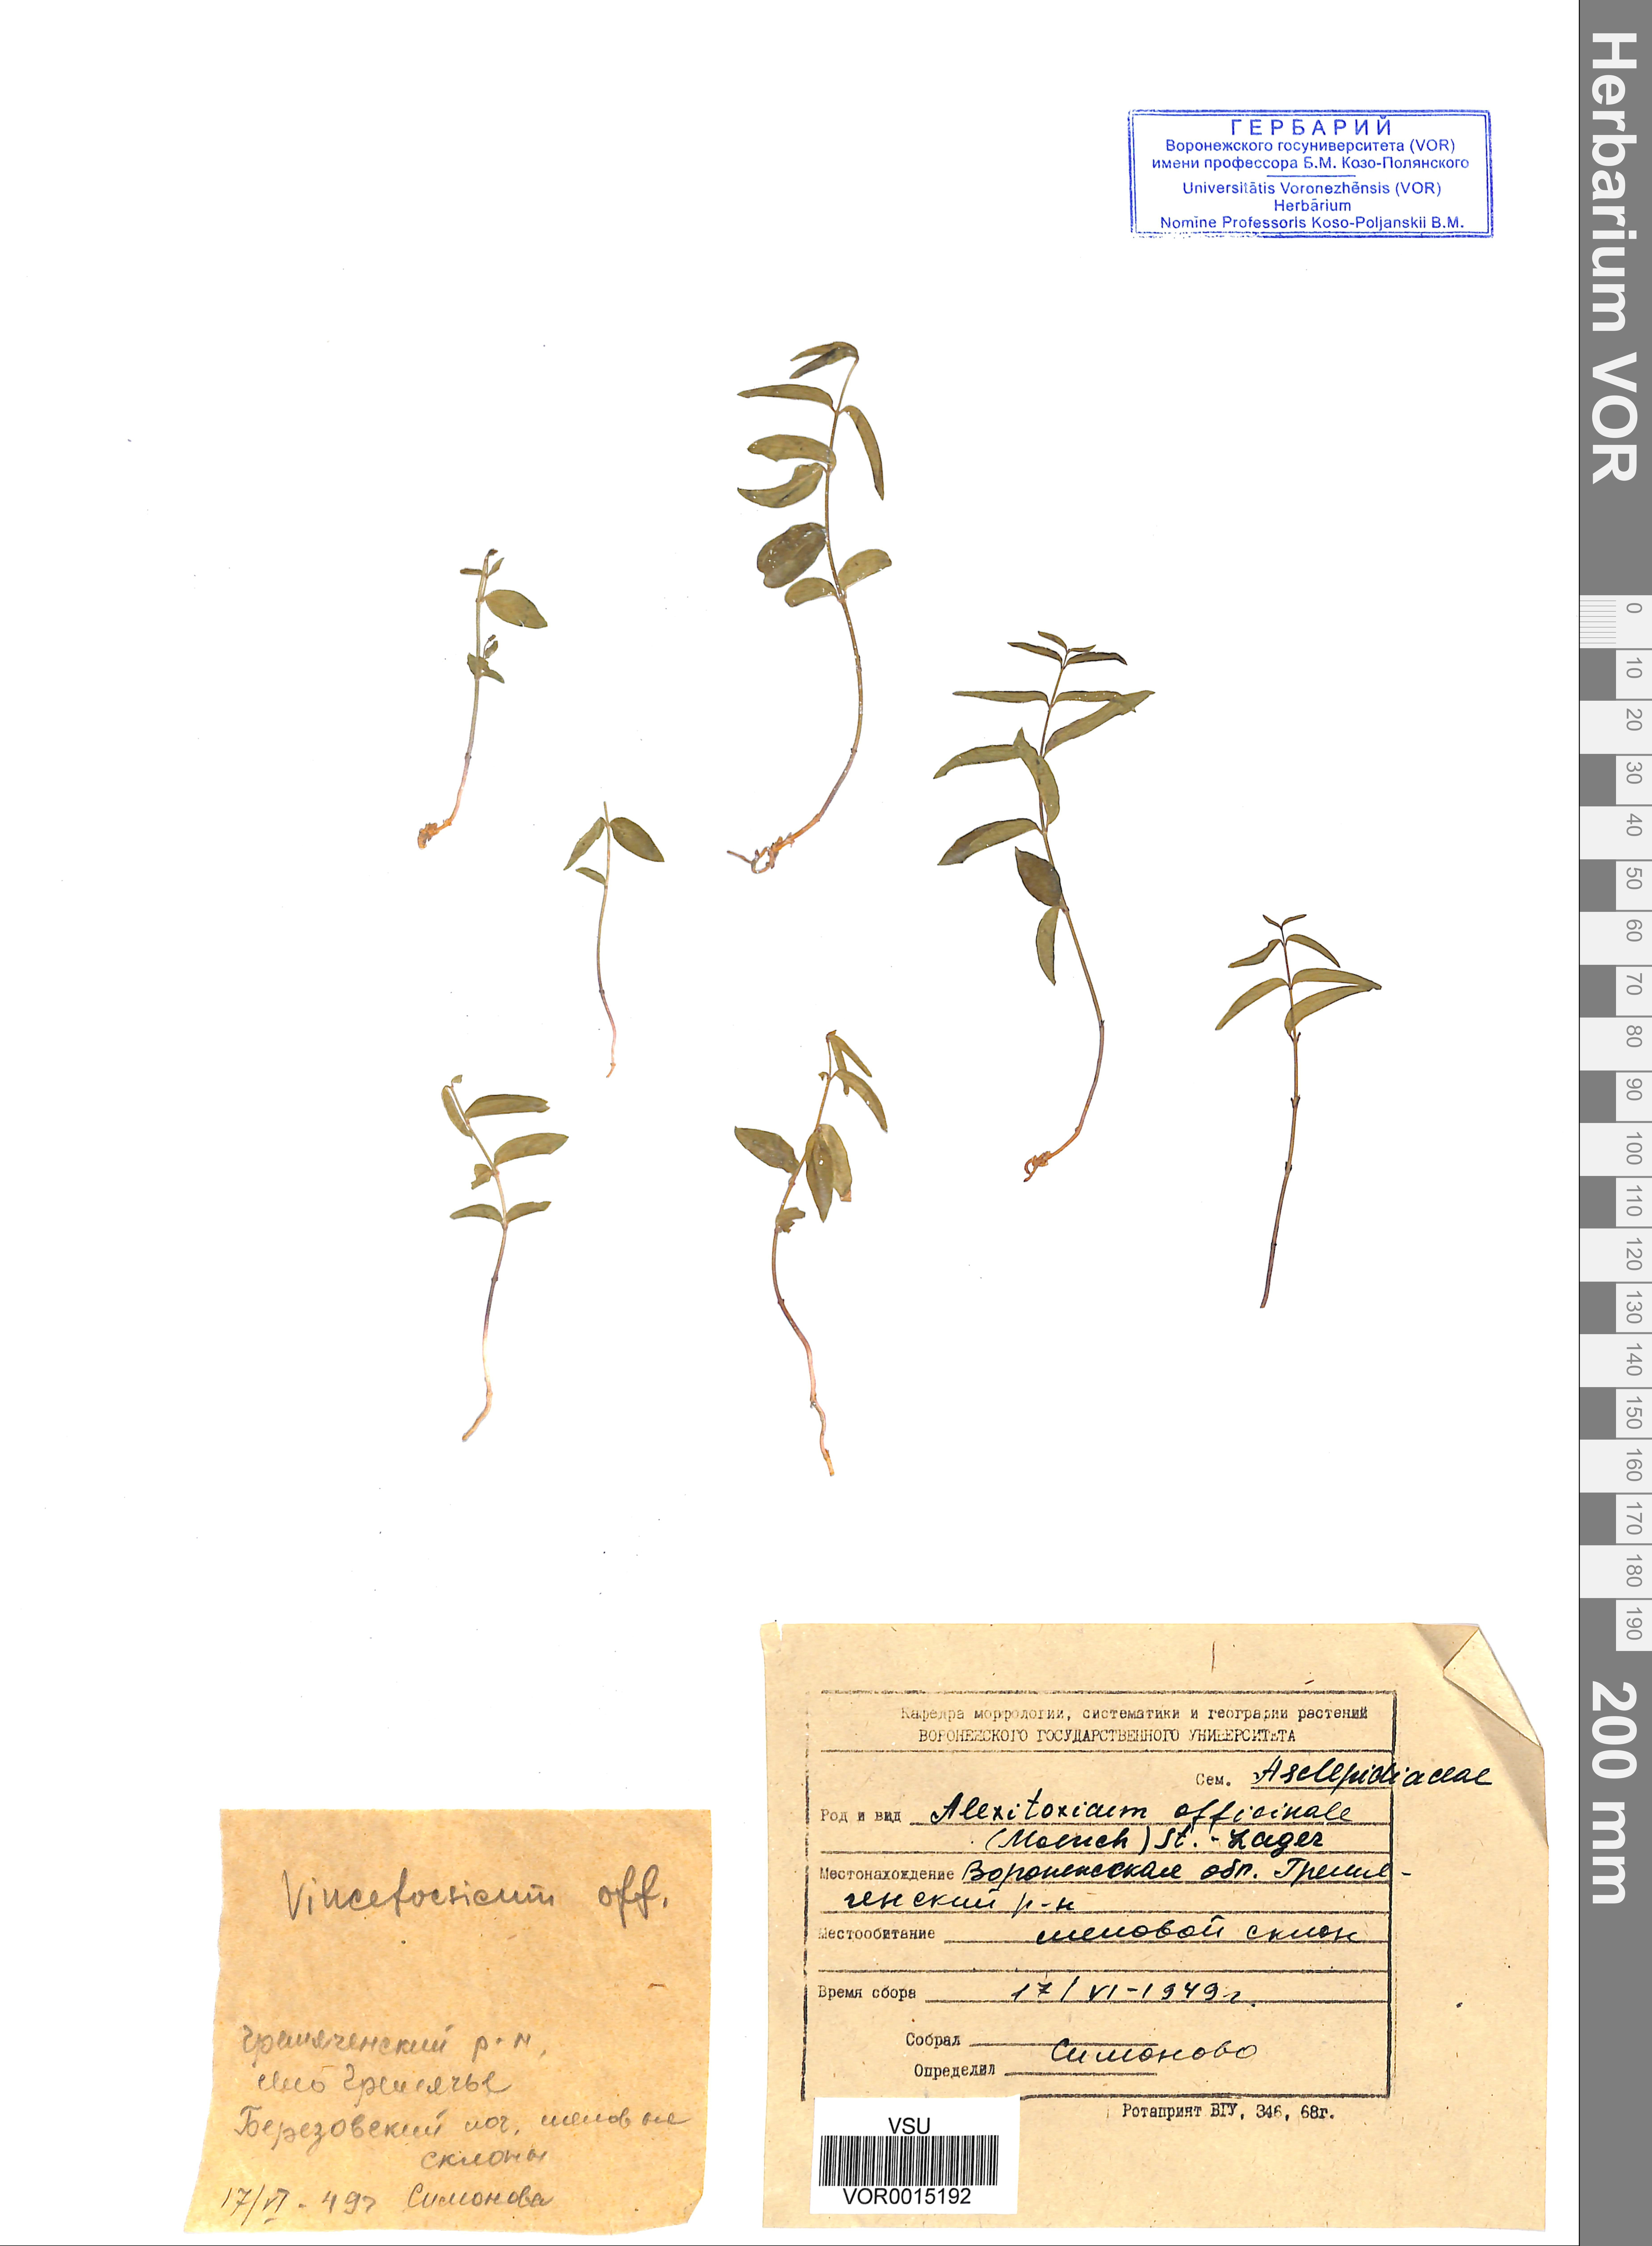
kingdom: Plantae
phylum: Tracheophyta
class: Magnoliopsida
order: Gentianales
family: Apocynaceae
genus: Vincetoxicum
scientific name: Vincetoxicum hirundinaria
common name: White swallowwort
